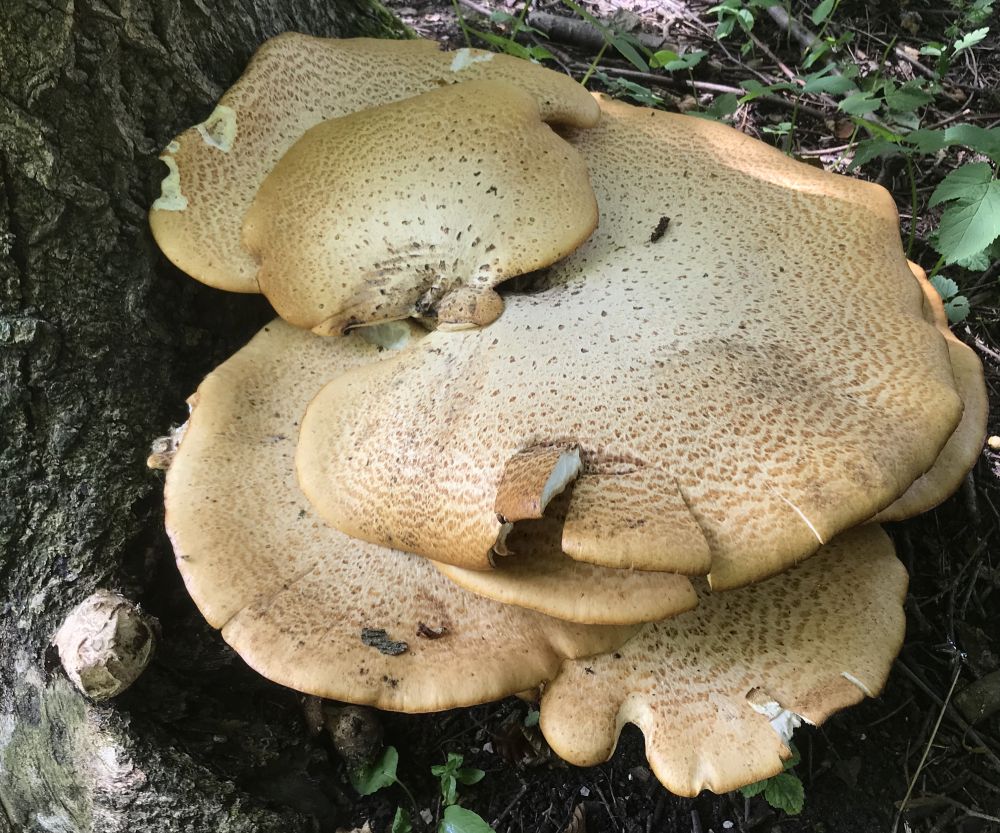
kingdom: Fungi
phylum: Basidiomycota
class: Agaricomycetes
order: Polyporales
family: Polyporaceae
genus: Cerioporus
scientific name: Cerioporus squamosus
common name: skællet stilkporesvamp
